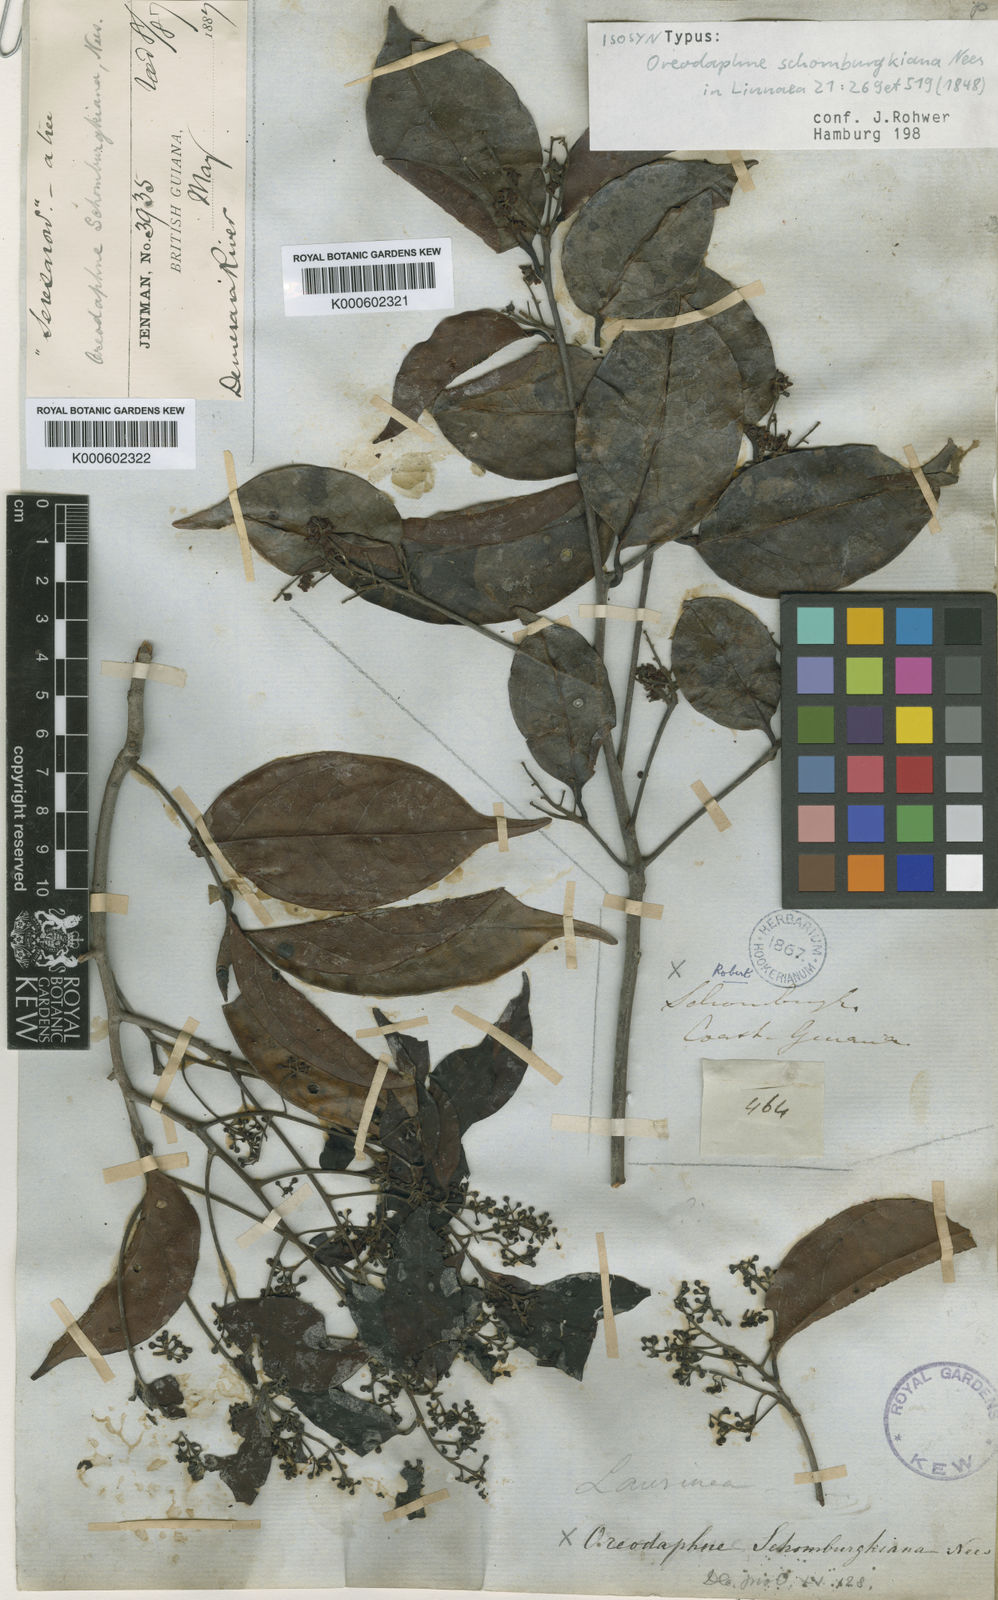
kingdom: Plantae
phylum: Tracheophyta
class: Magnoliopsida
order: Laurales
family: Lauraceae
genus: Ocotea
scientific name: Ocotea schomburgkiana
